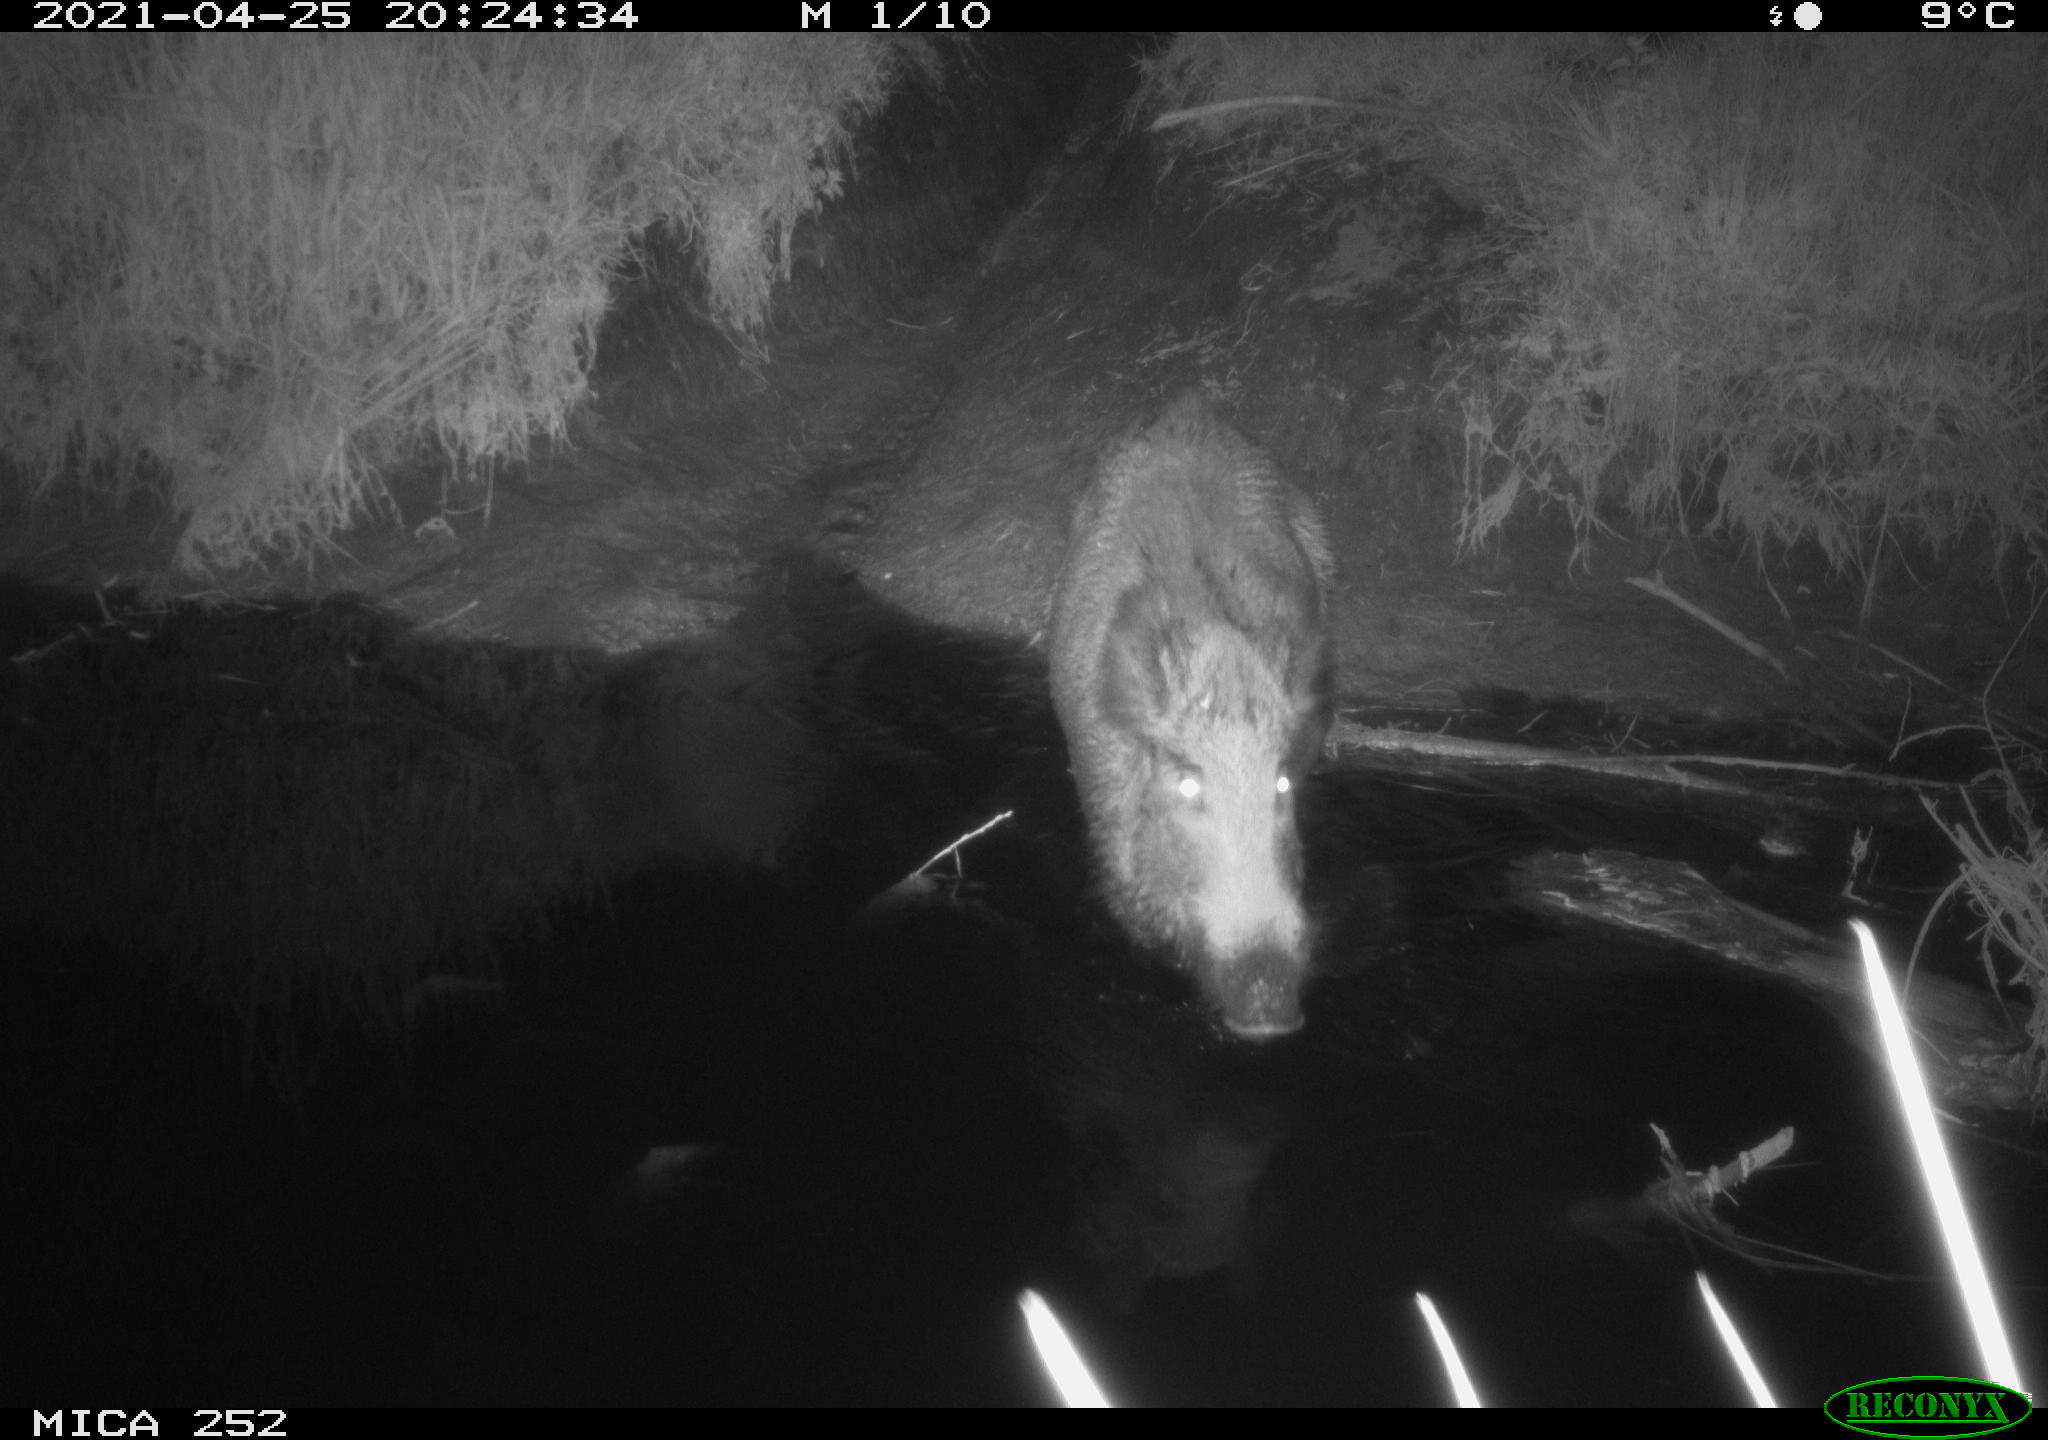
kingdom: Animalia
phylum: Chordata
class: Mammalia
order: Artiodactyla
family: Suidae
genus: Sus
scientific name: Sus scrofa
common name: Wild boar
